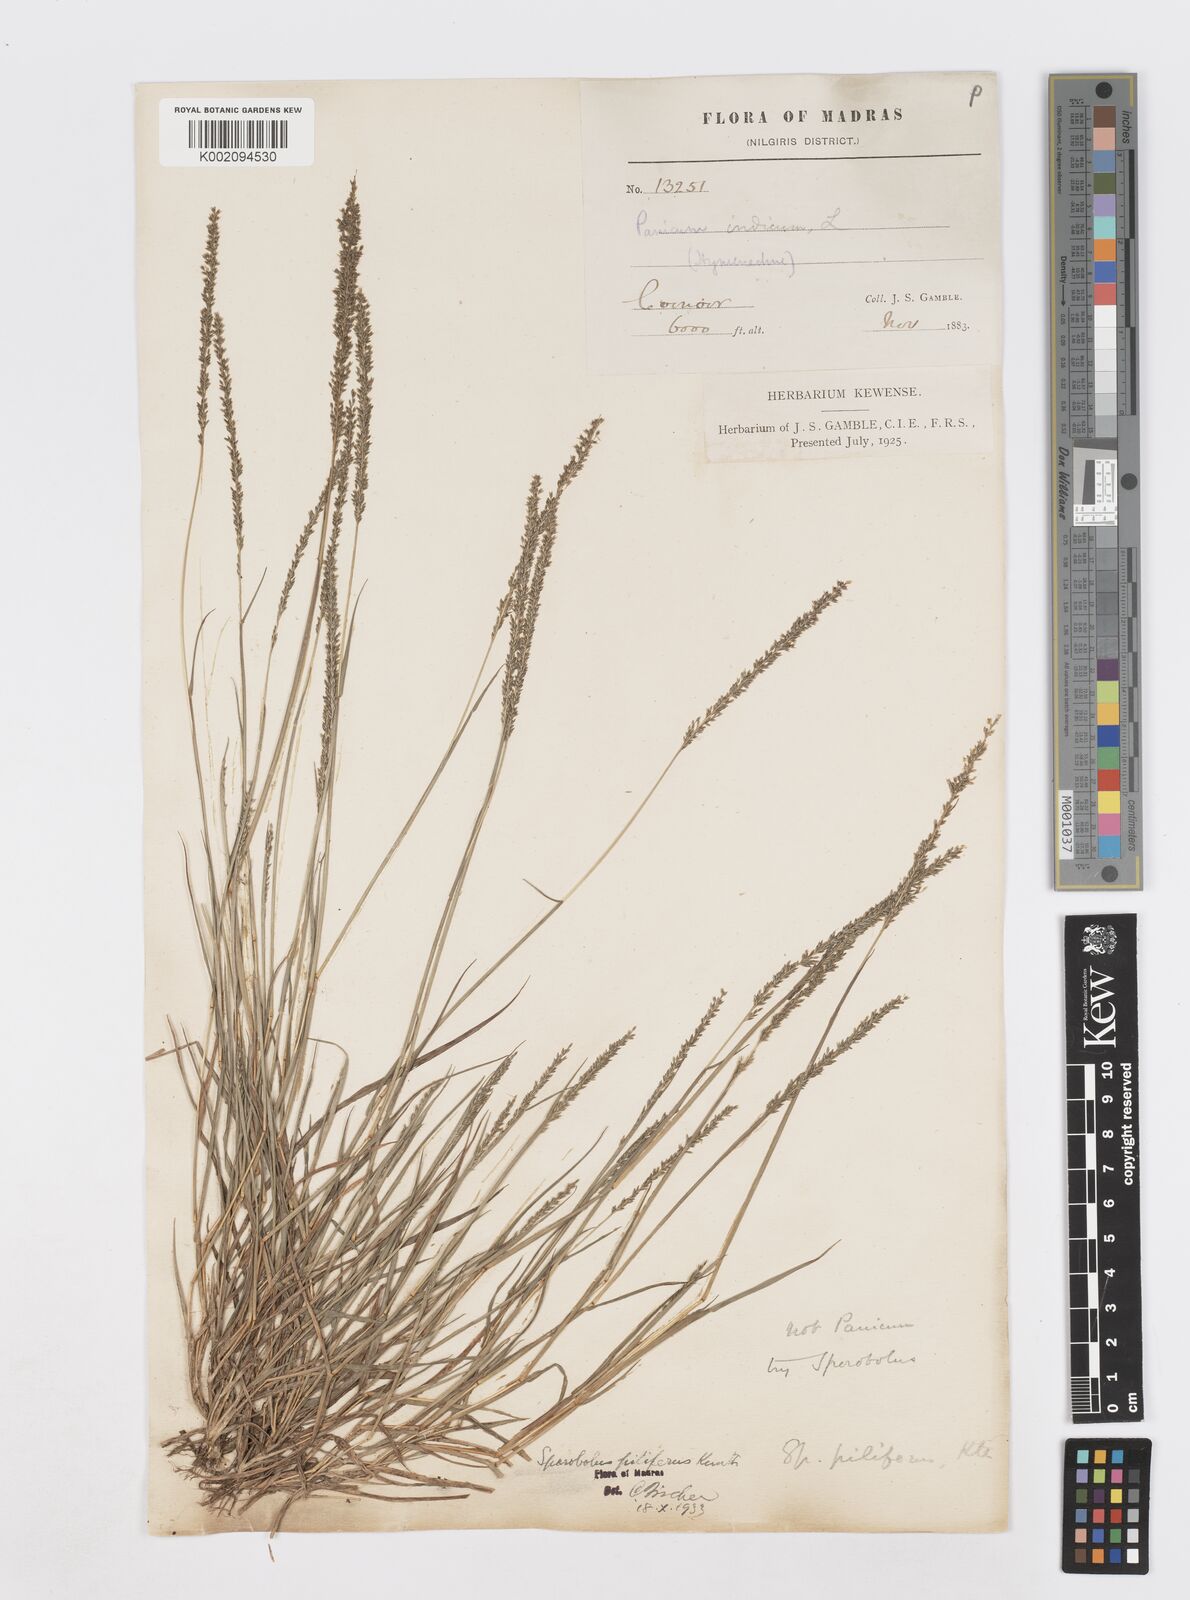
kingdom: Plantae
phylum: Tracheophyta
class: Liliopsida
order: Poales
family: Poaceae
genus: Sporobolus
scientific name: Sporobolus pilifer
